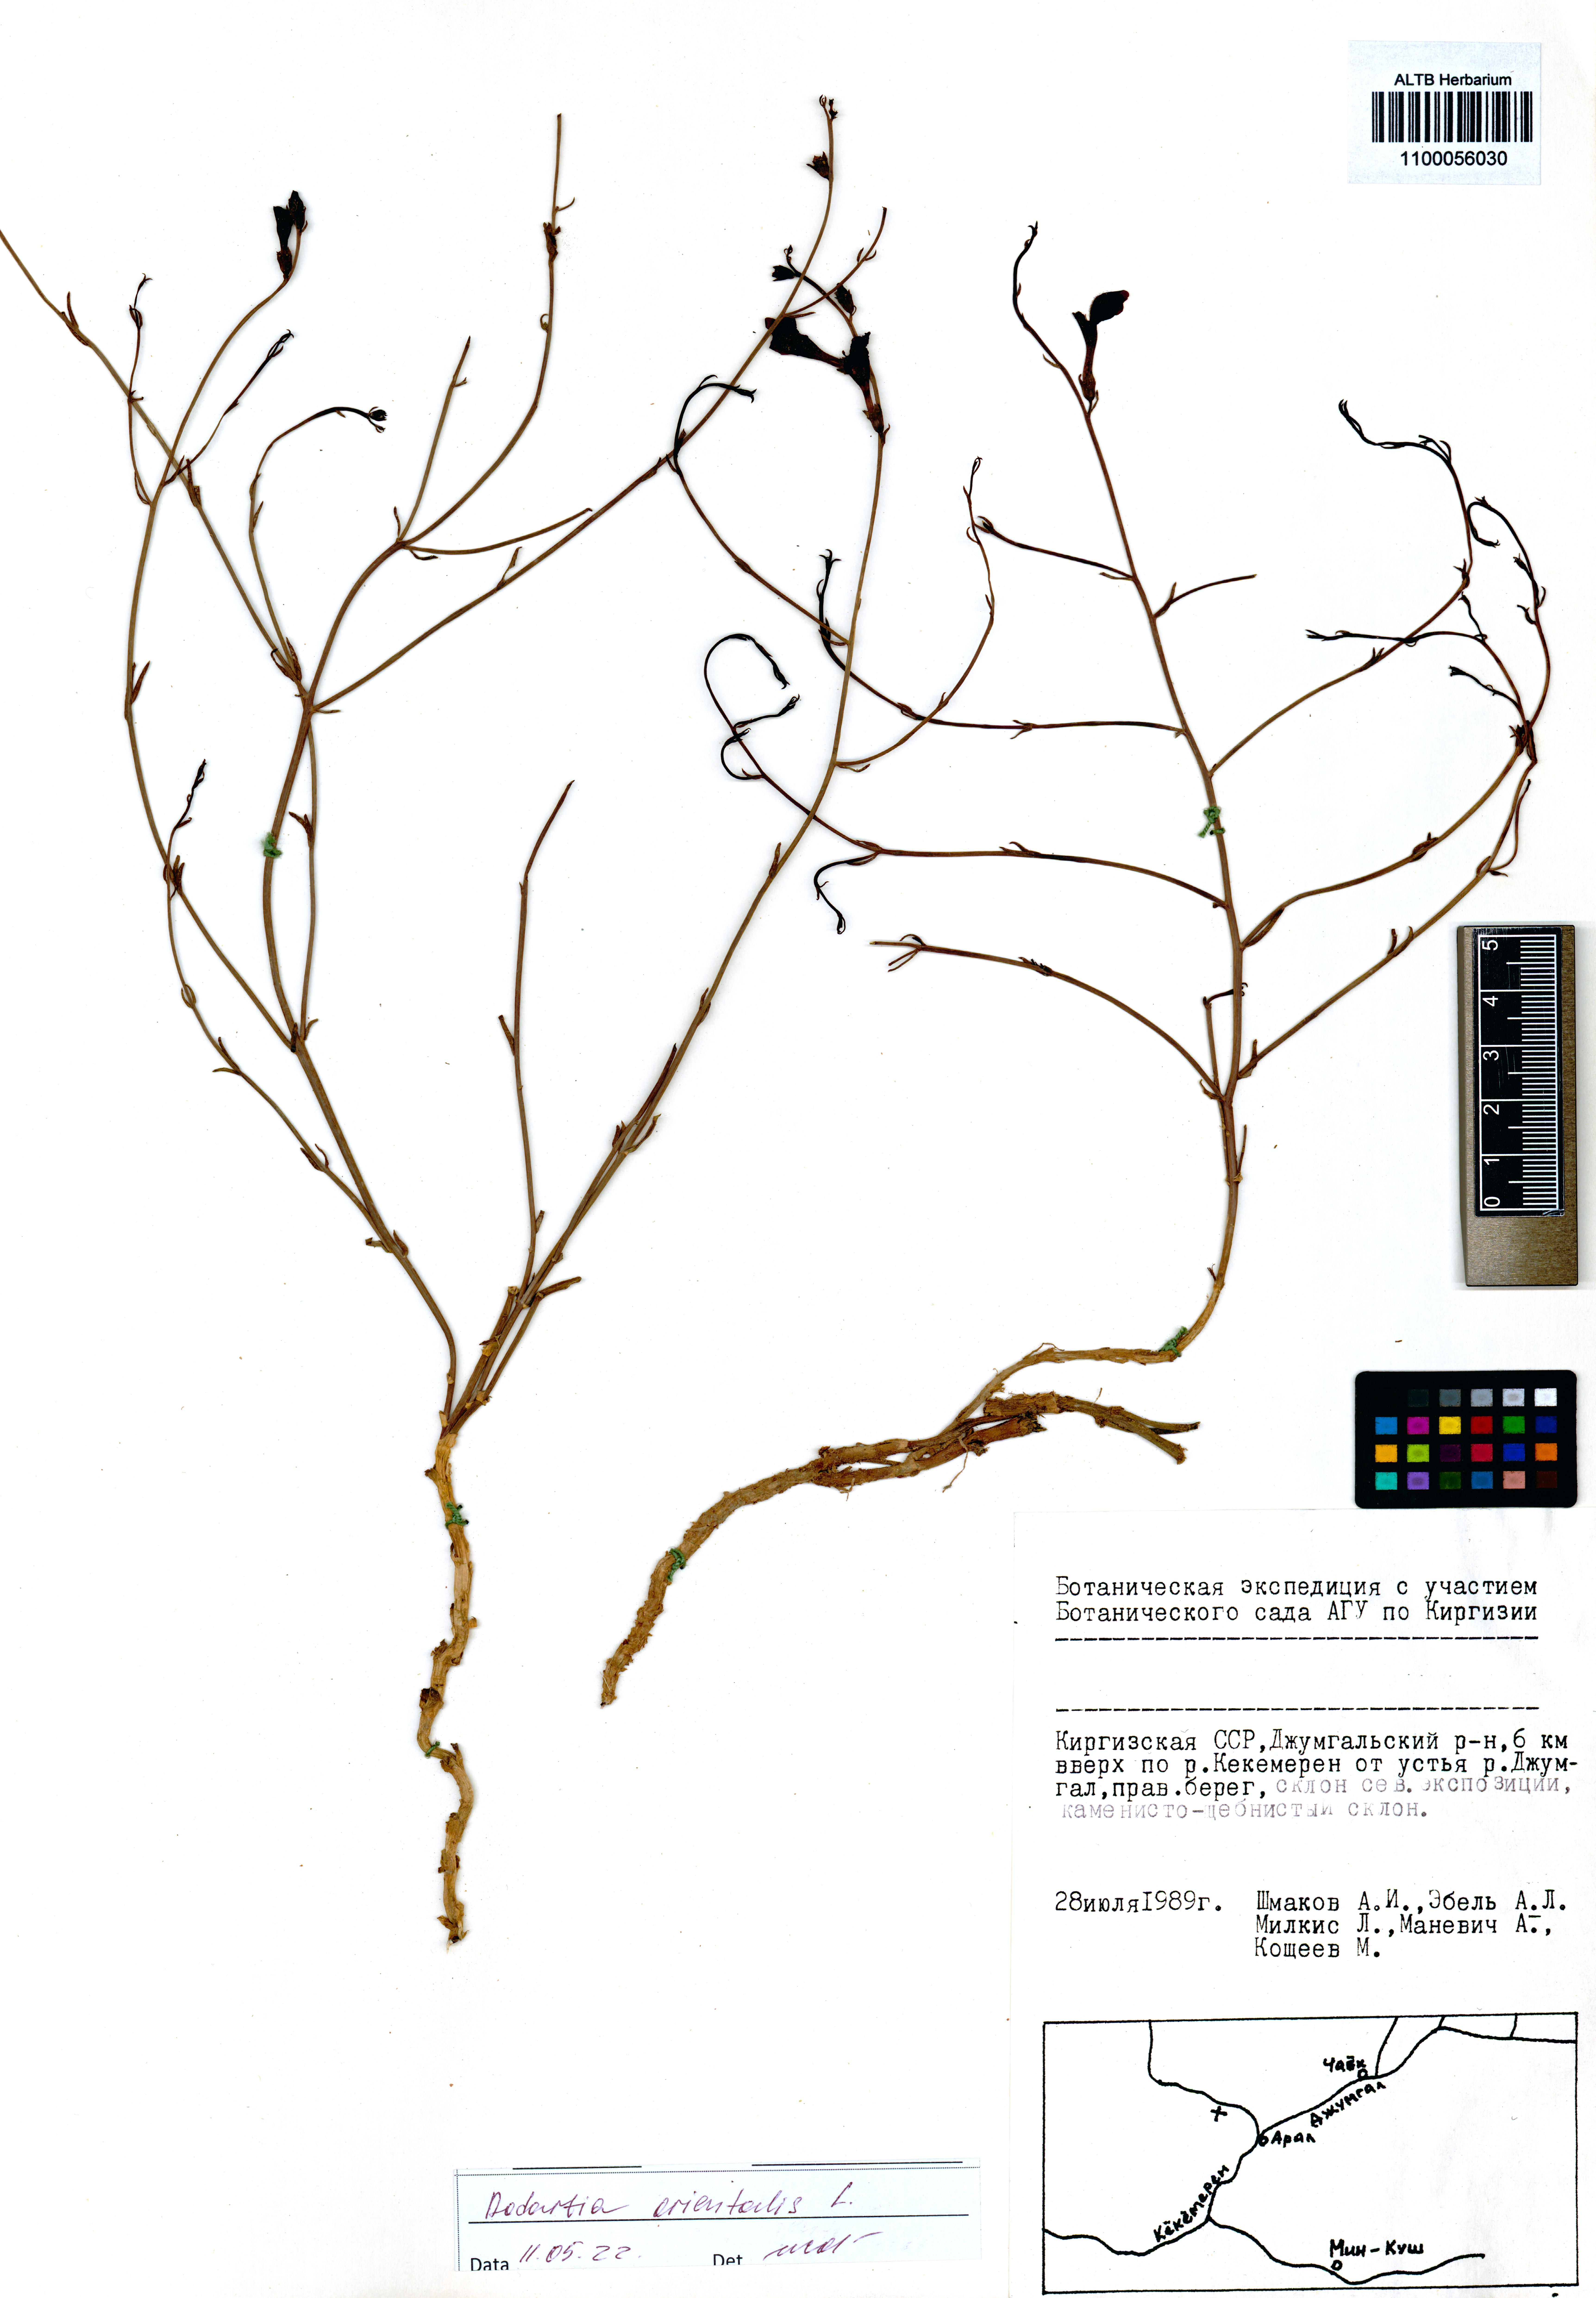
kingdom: Plantae
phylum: Tracheophyta
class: Magnoliopsida
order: Lamiales
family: Mazaceae
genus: Dodartia
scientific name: Dodartia orientalis
